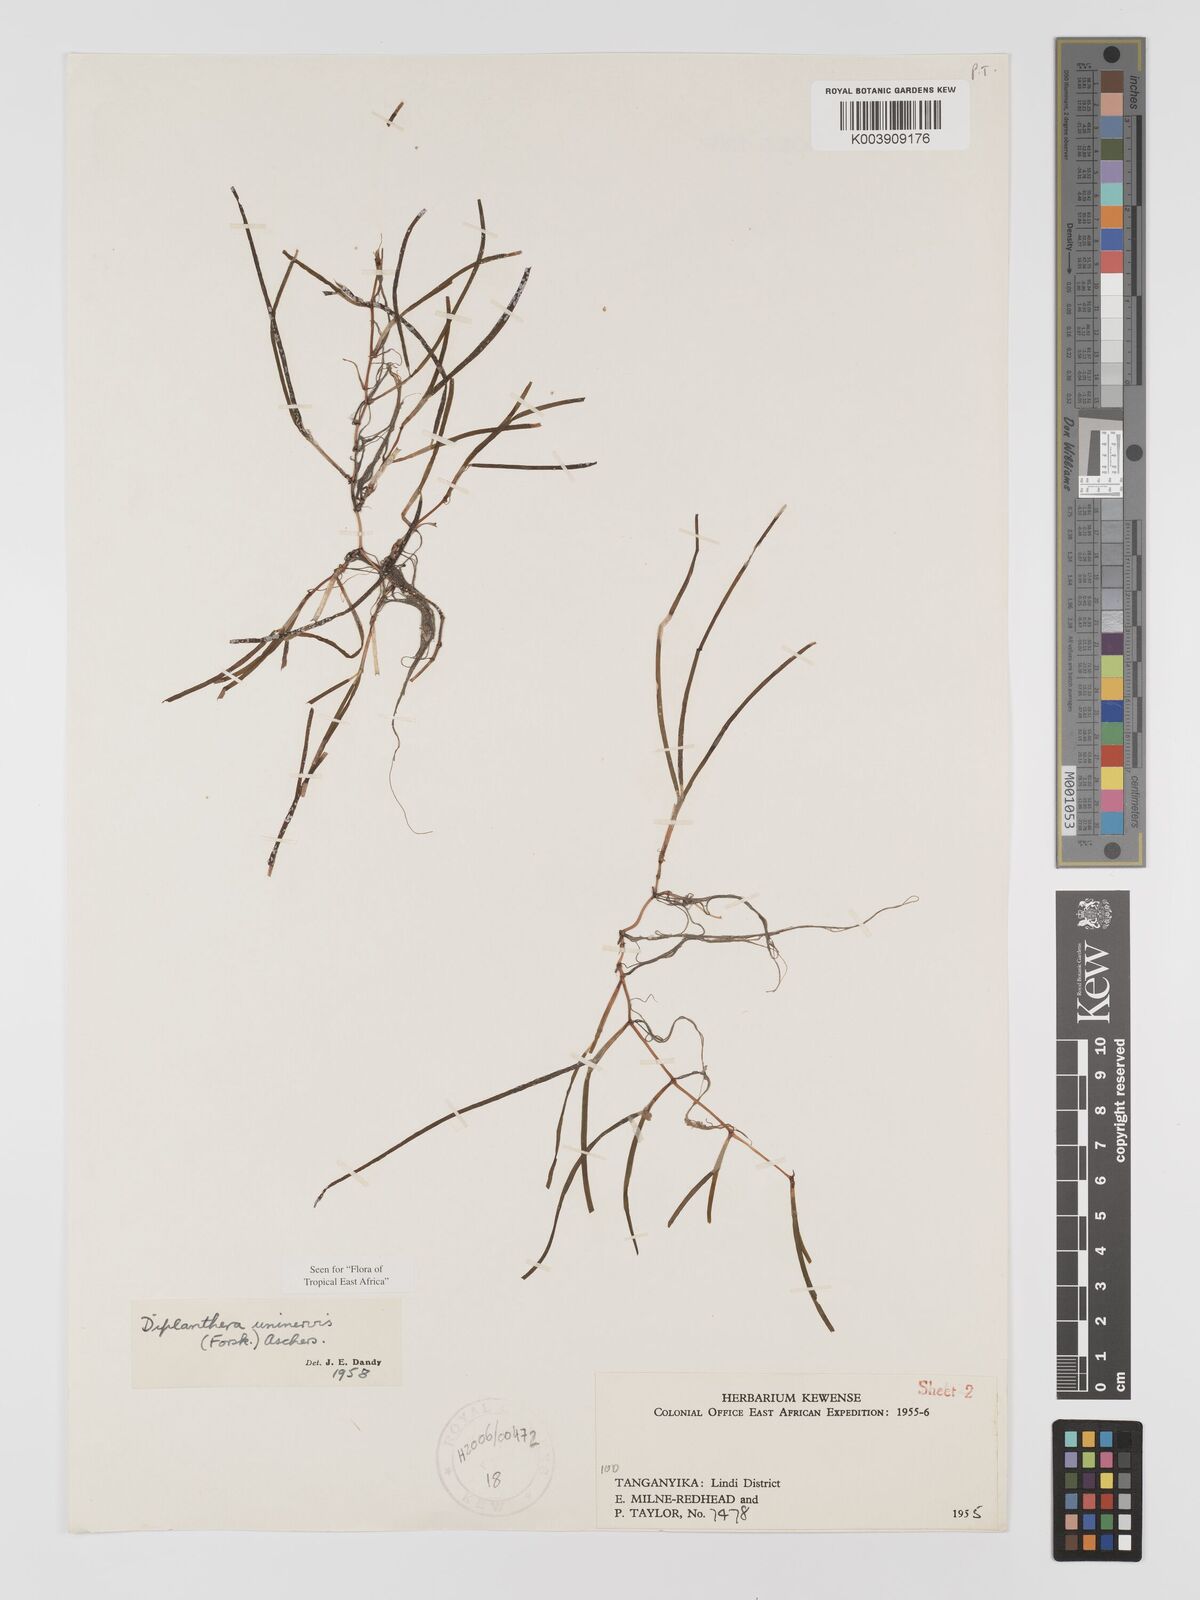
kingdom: Plantae
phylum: Tracheophyta
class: Liliopsida
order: Alismatales
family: Cymodoceaceae
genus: Halodule
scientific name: Halodule uninervis
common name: Narrowleaf seagrass
